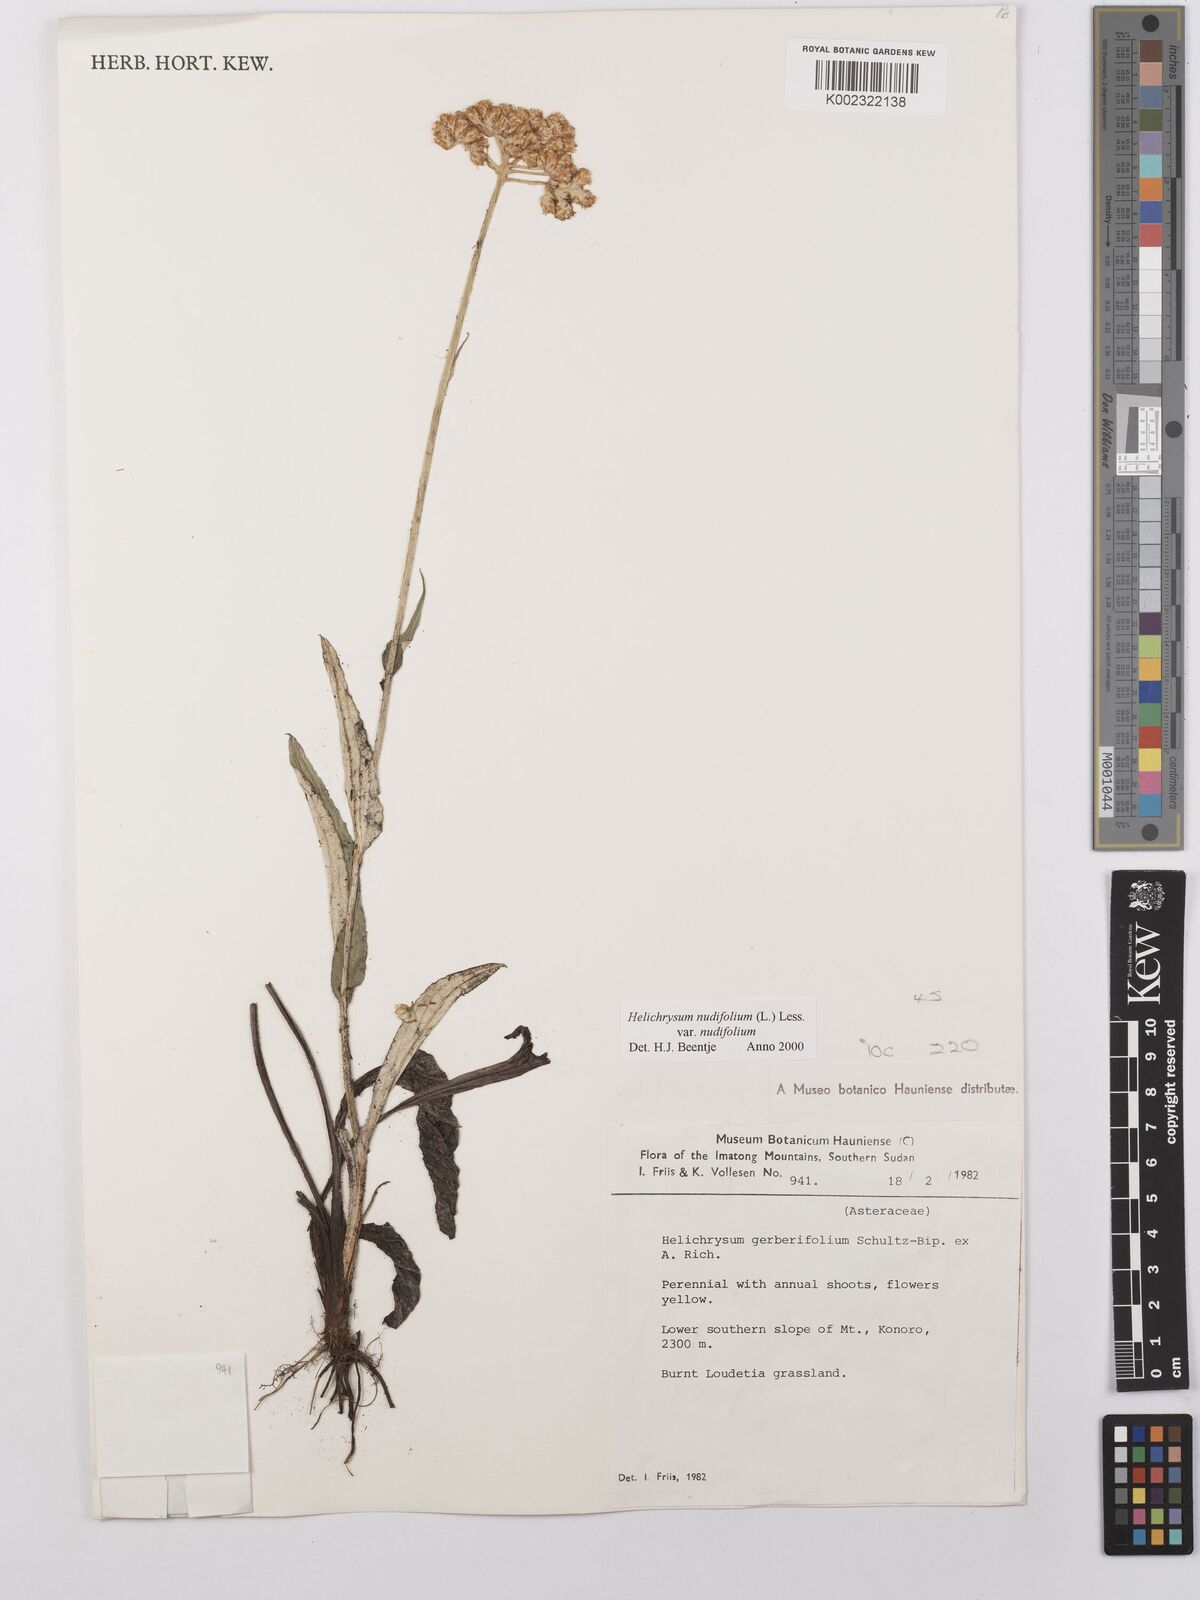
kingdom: Plantae
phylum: Tracheophyta
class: Magnoliopsida
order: Asterales
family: Asteraceae
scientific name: Asteraceae
